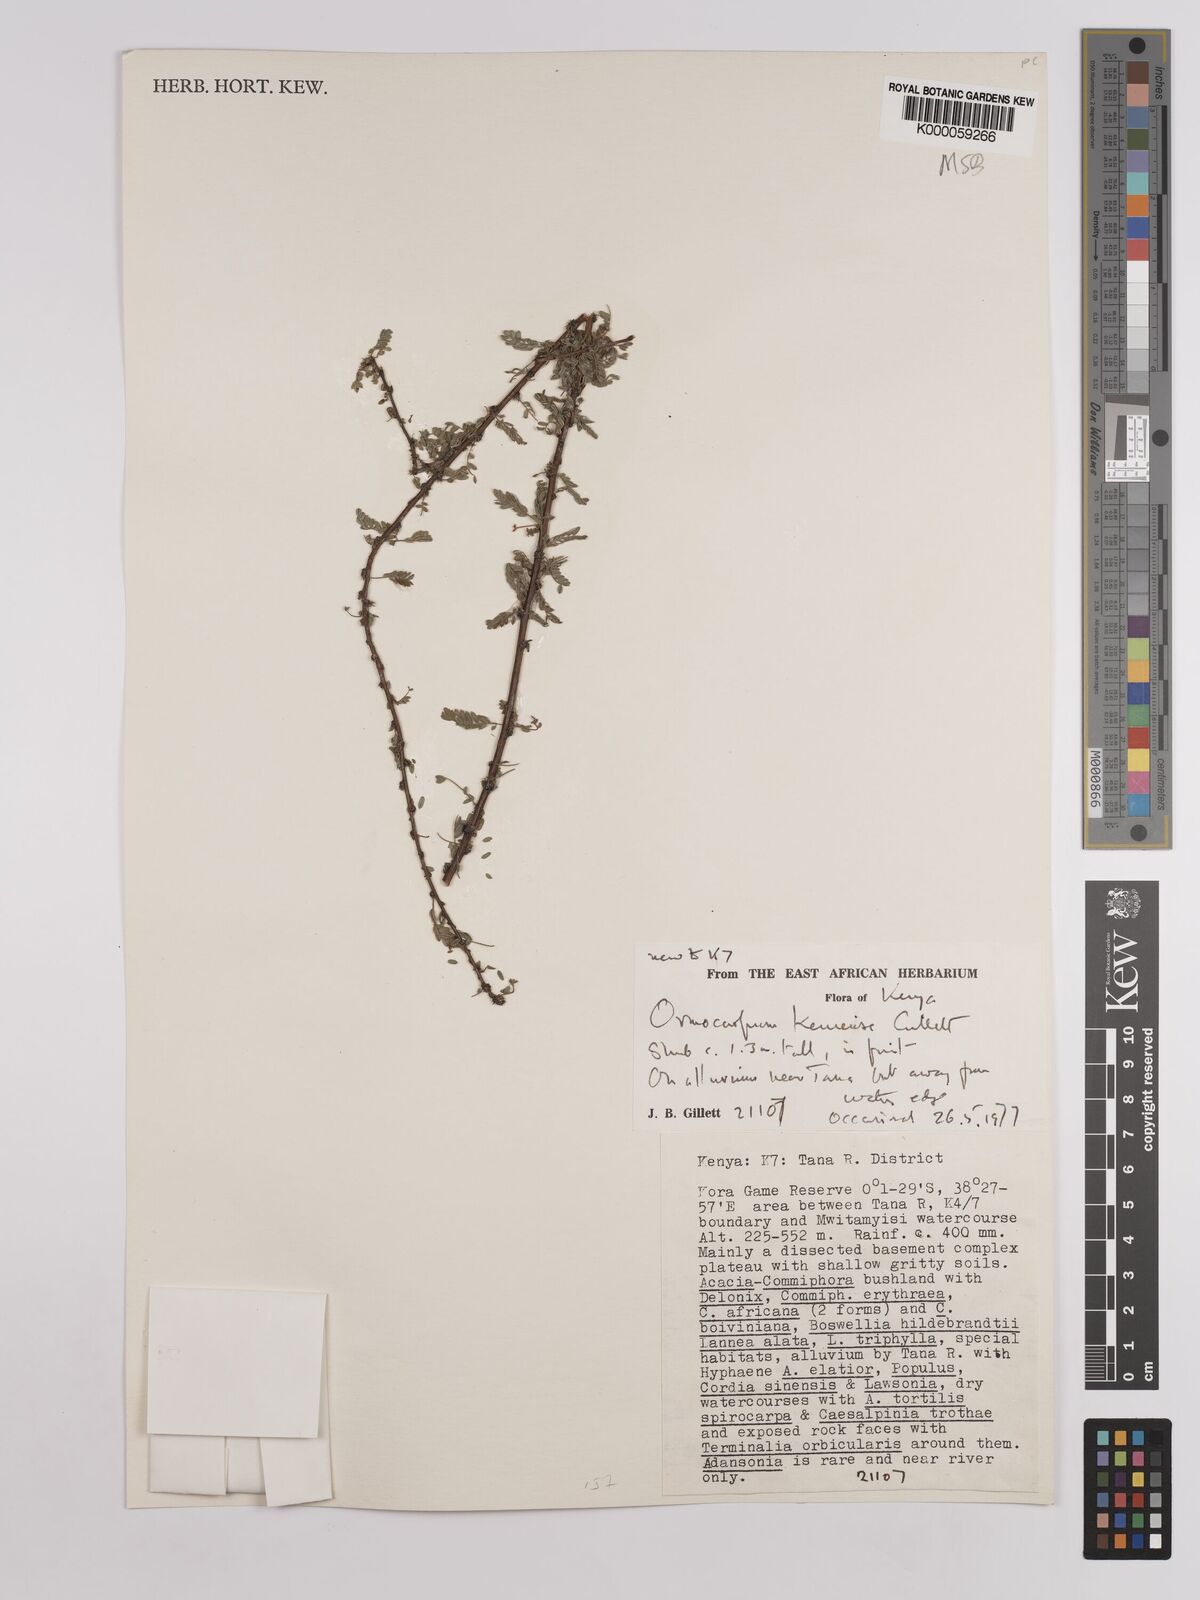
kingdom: Plantae
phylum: Tracheophyta
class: Magnoliopsida
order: Fabales
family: Fabaceae
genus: Ormocarpum
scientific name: Ormocarpum keniense
